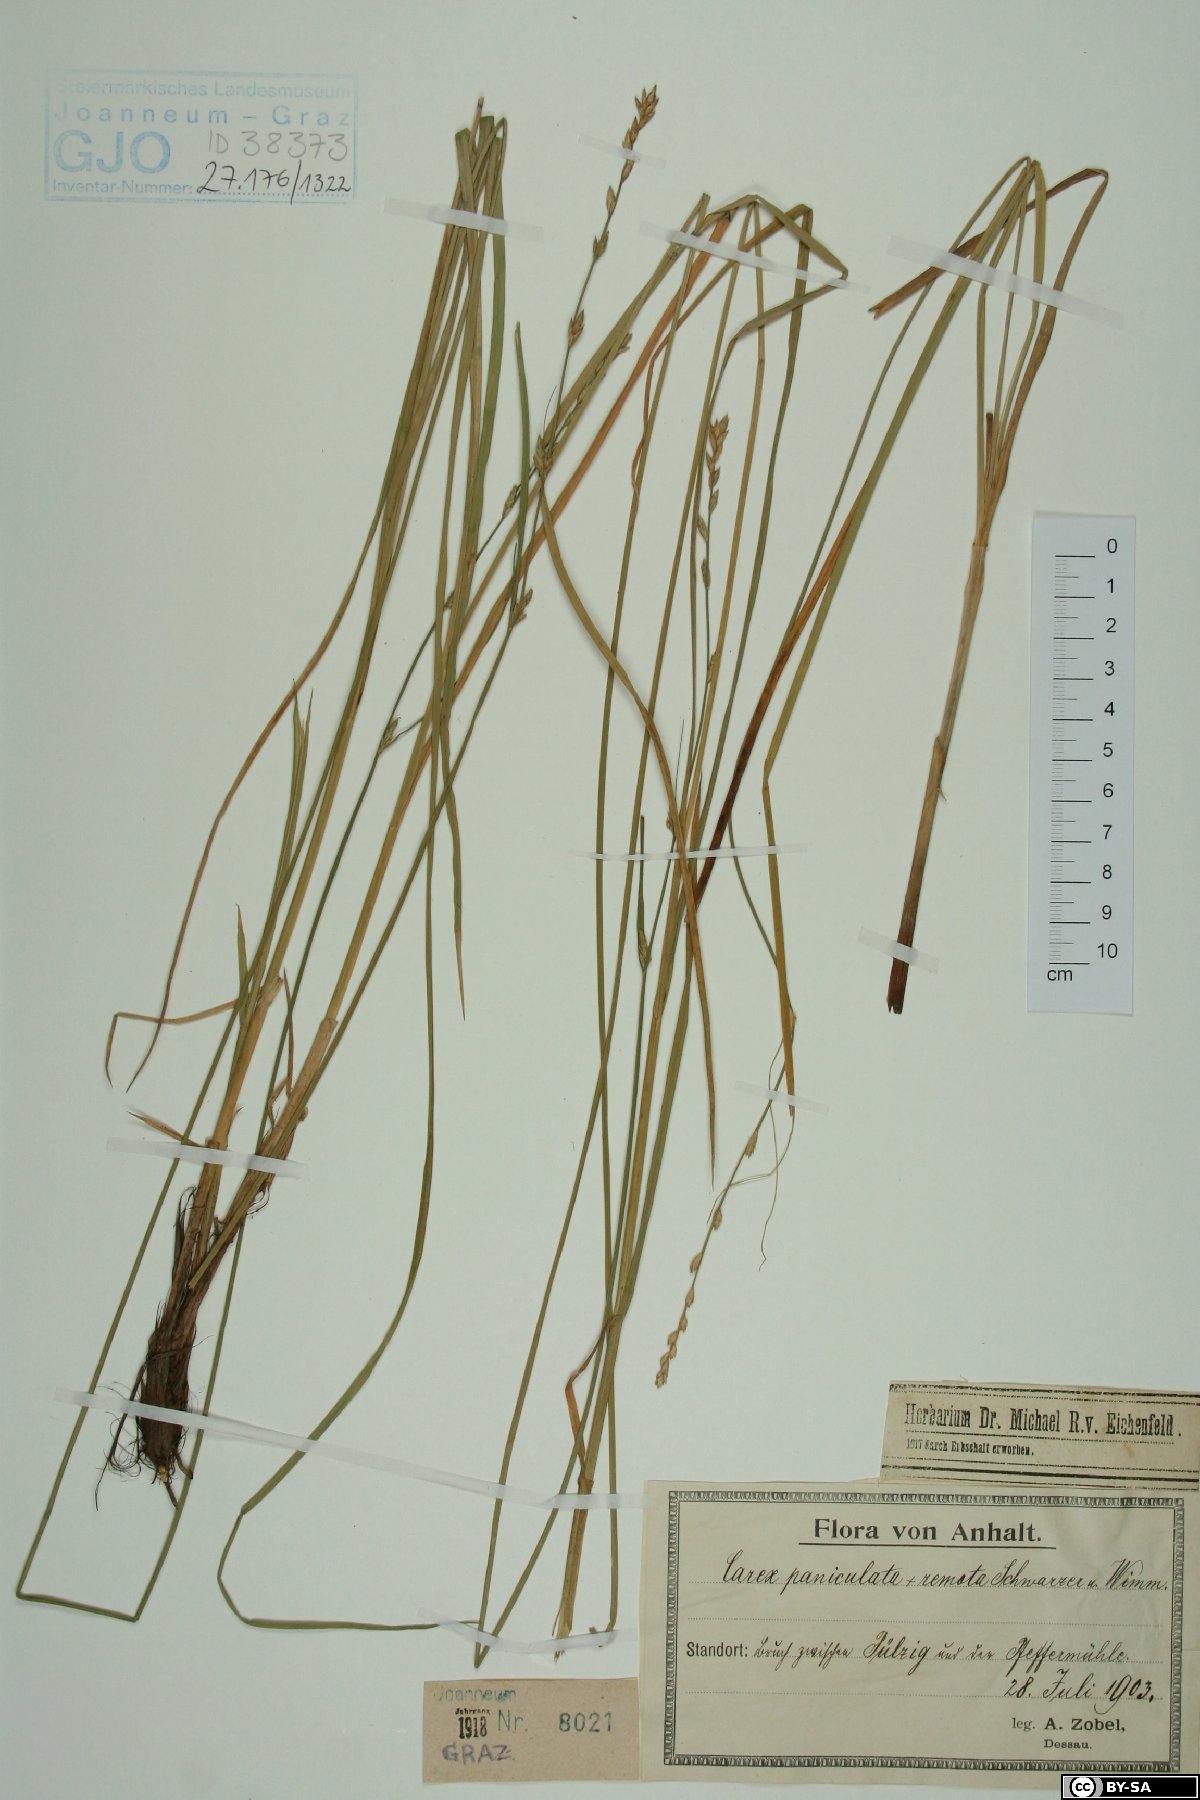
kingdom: Plantae
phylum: Tracheophyta
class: Liliopsida
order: Poales
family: Cyperaceae
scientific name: Cyperaceae
